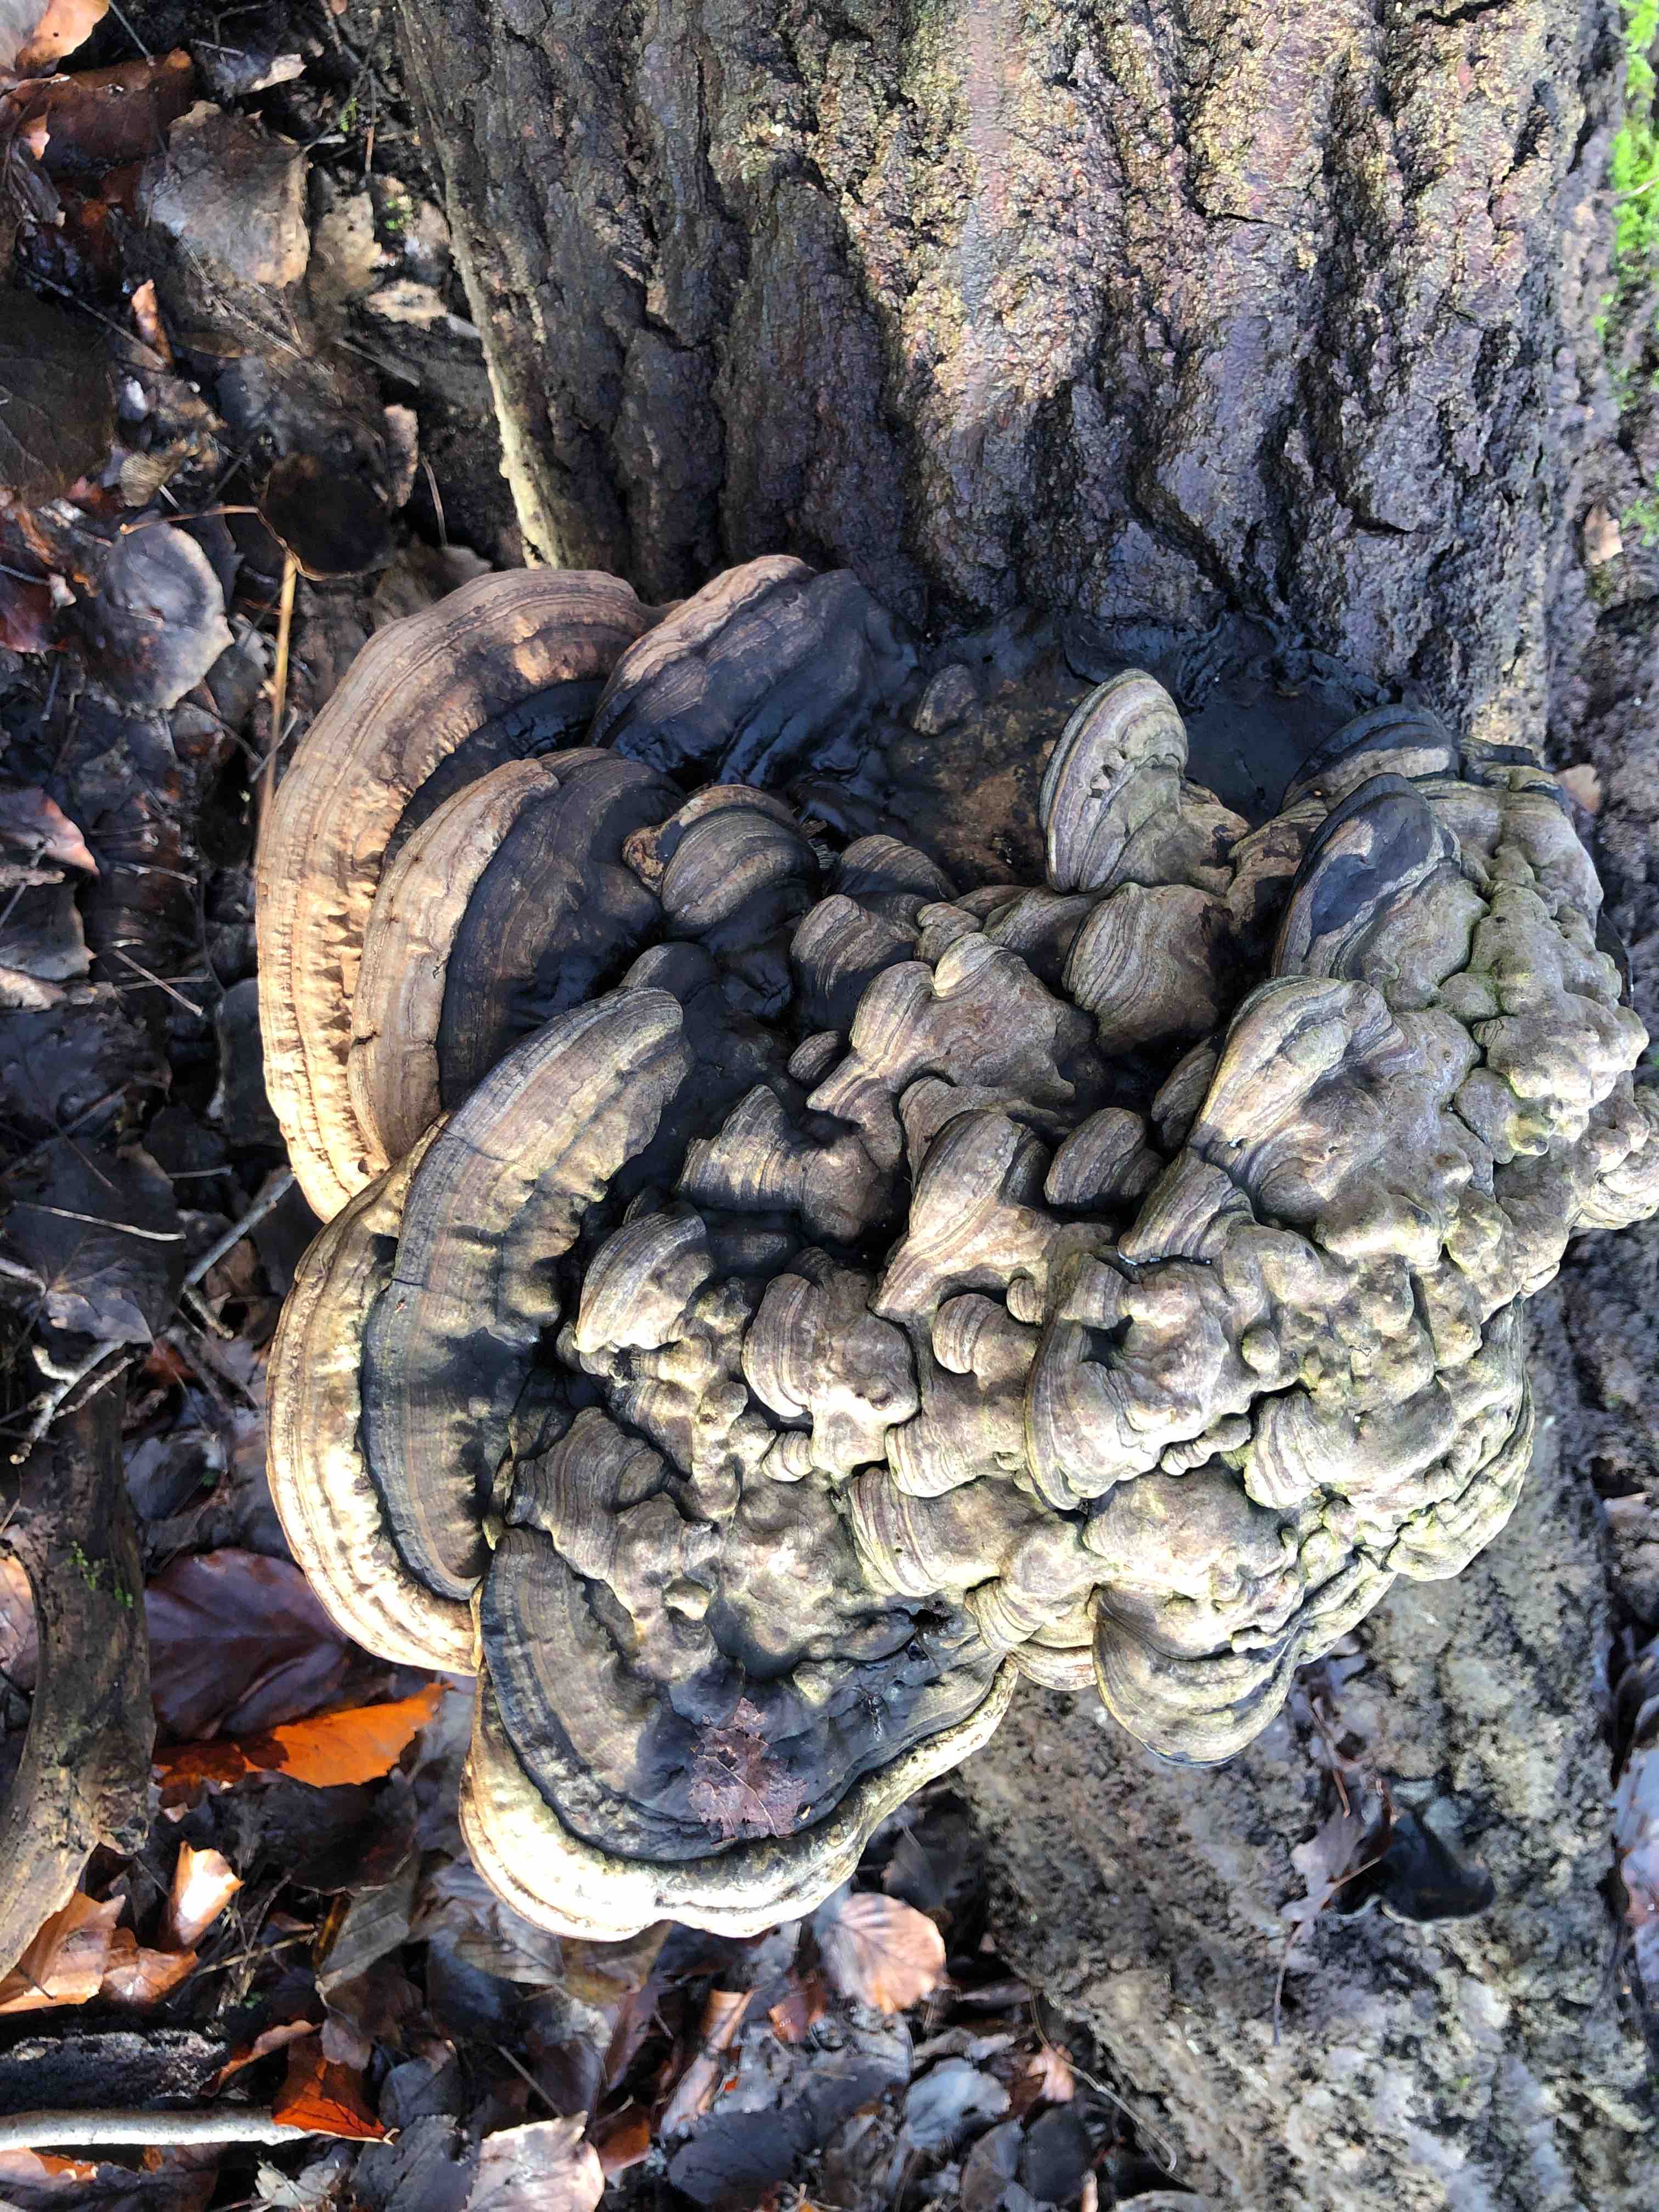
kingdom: Fungi
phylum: Basidiomycota
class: Agaricomycetes
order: Polyporales
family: Polyporaceae
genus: Ganoderma
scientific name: Ganoderma applanatum
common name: flad lakporesvamp
